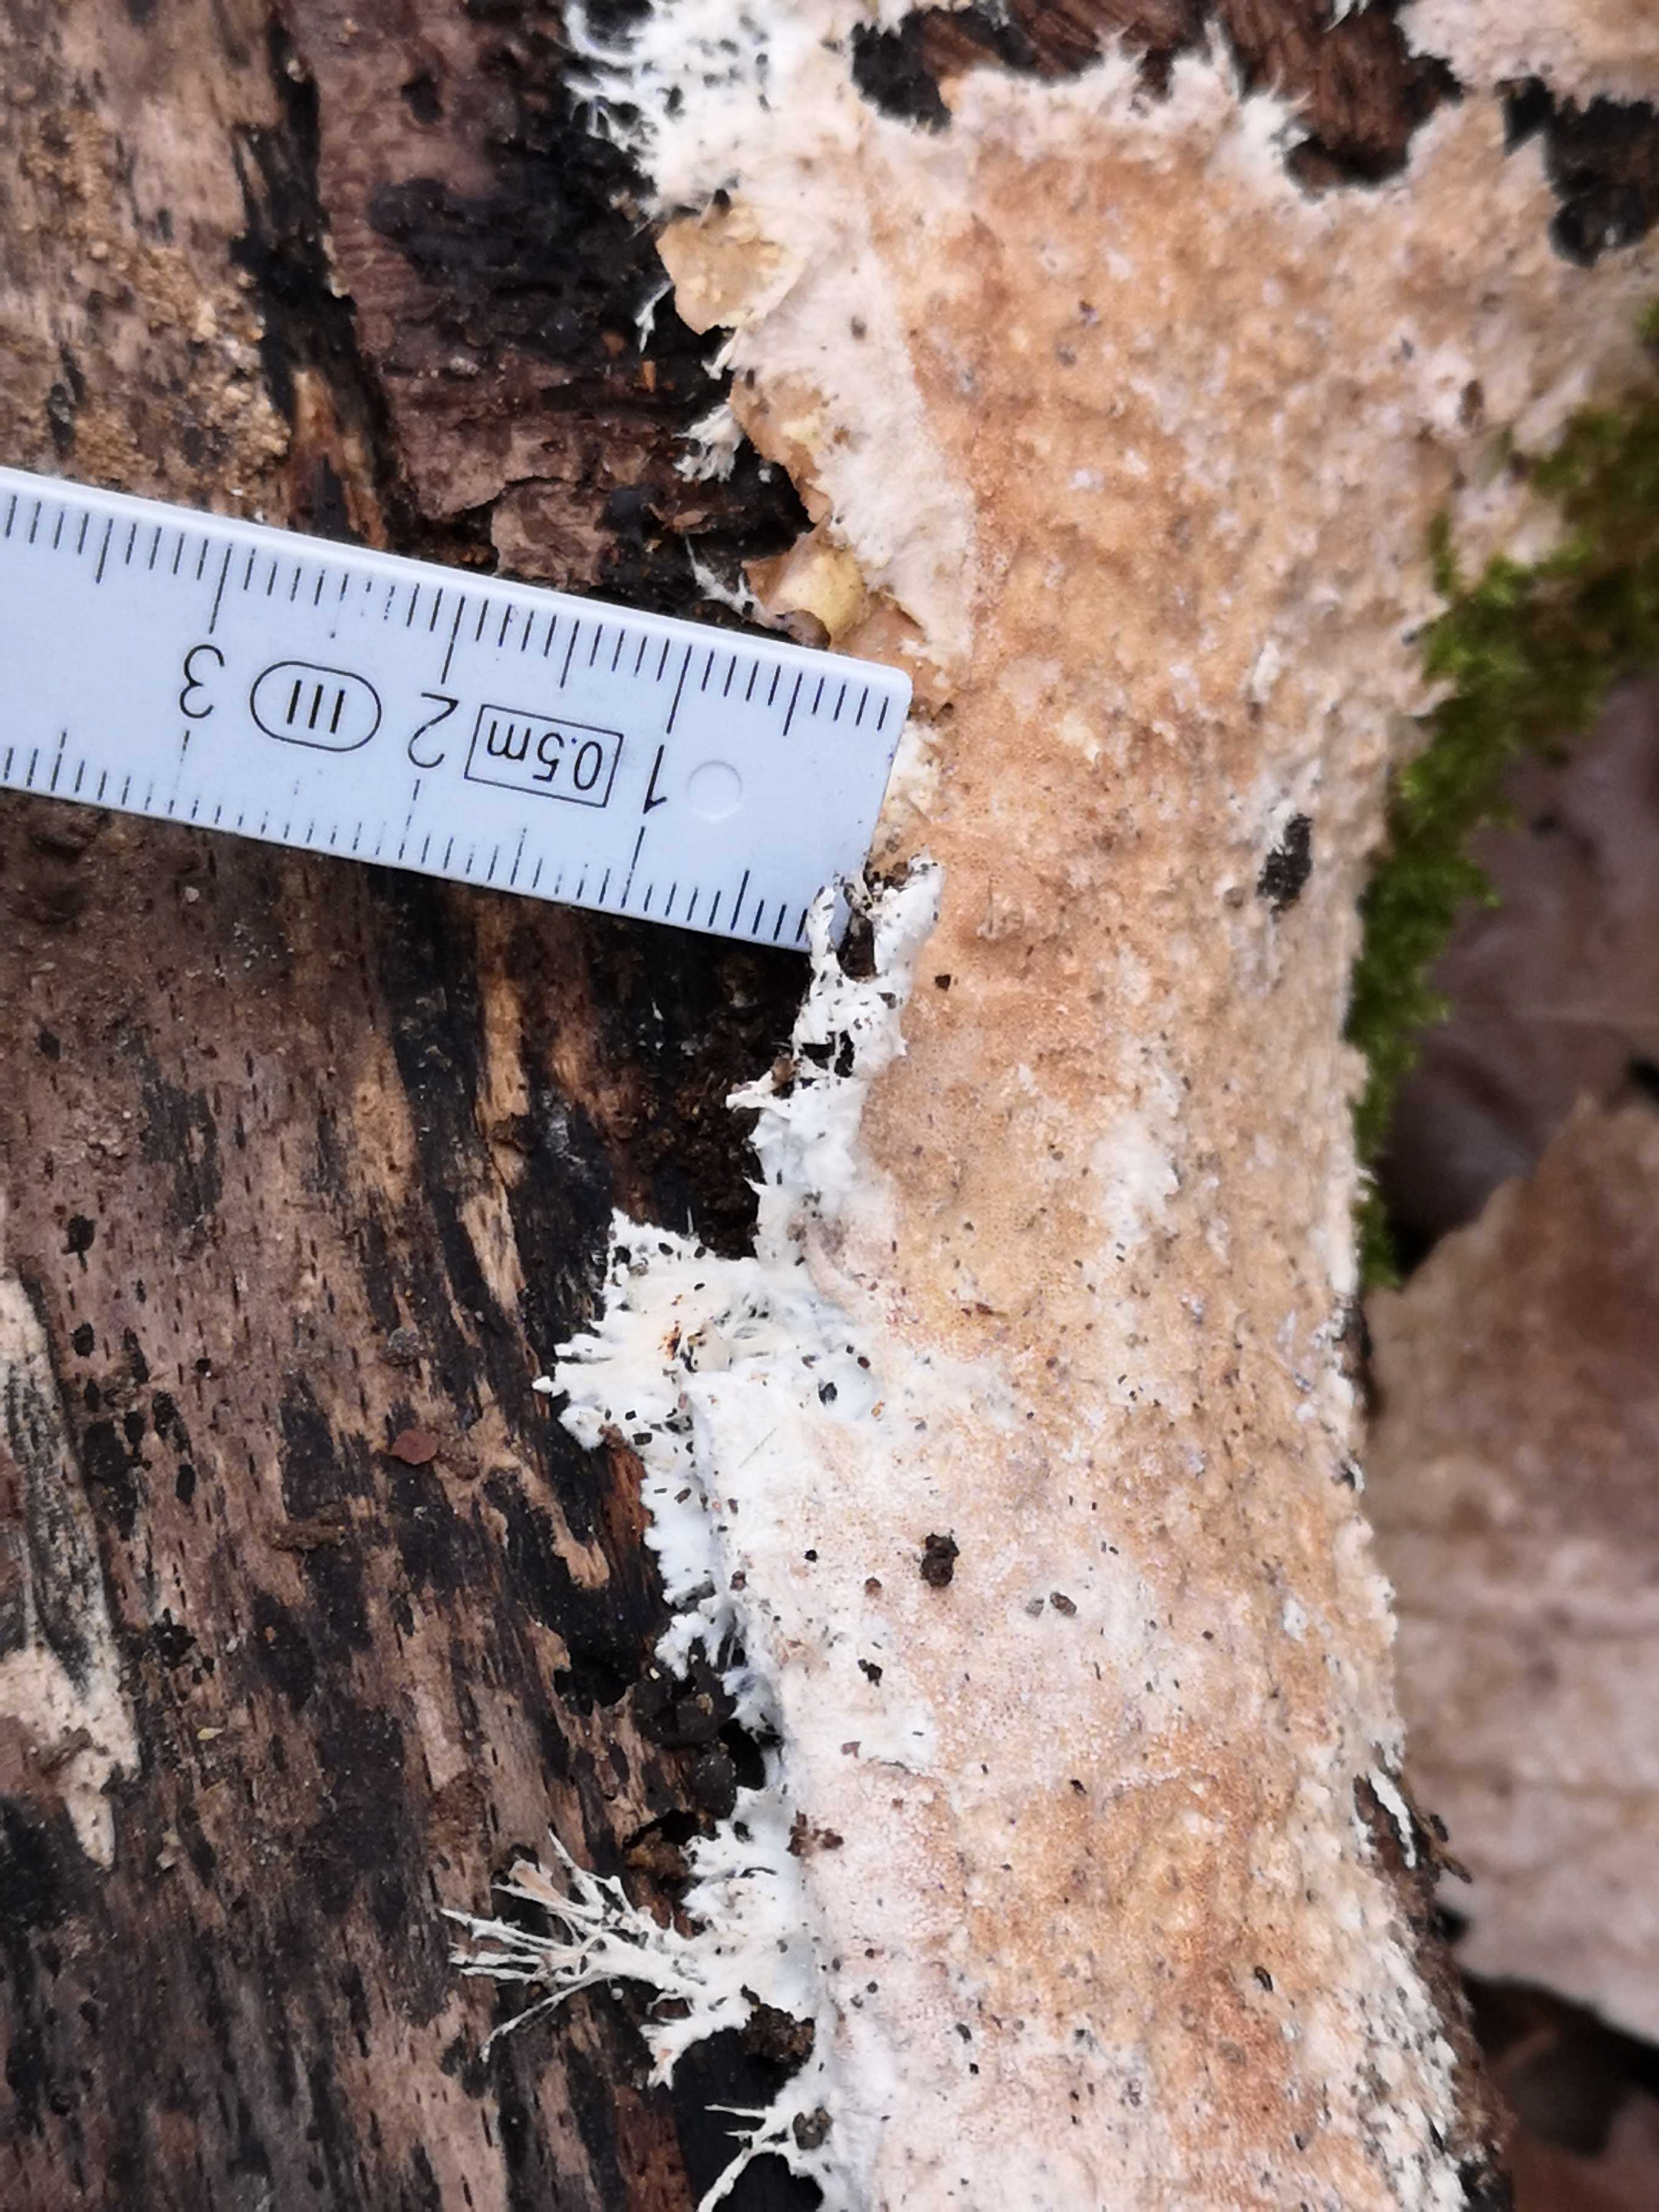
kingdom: Fungi
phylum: Basidiomycota
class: Agaricomycetes
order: Polyporales
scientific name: Polyporales
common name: poresvampordenen
